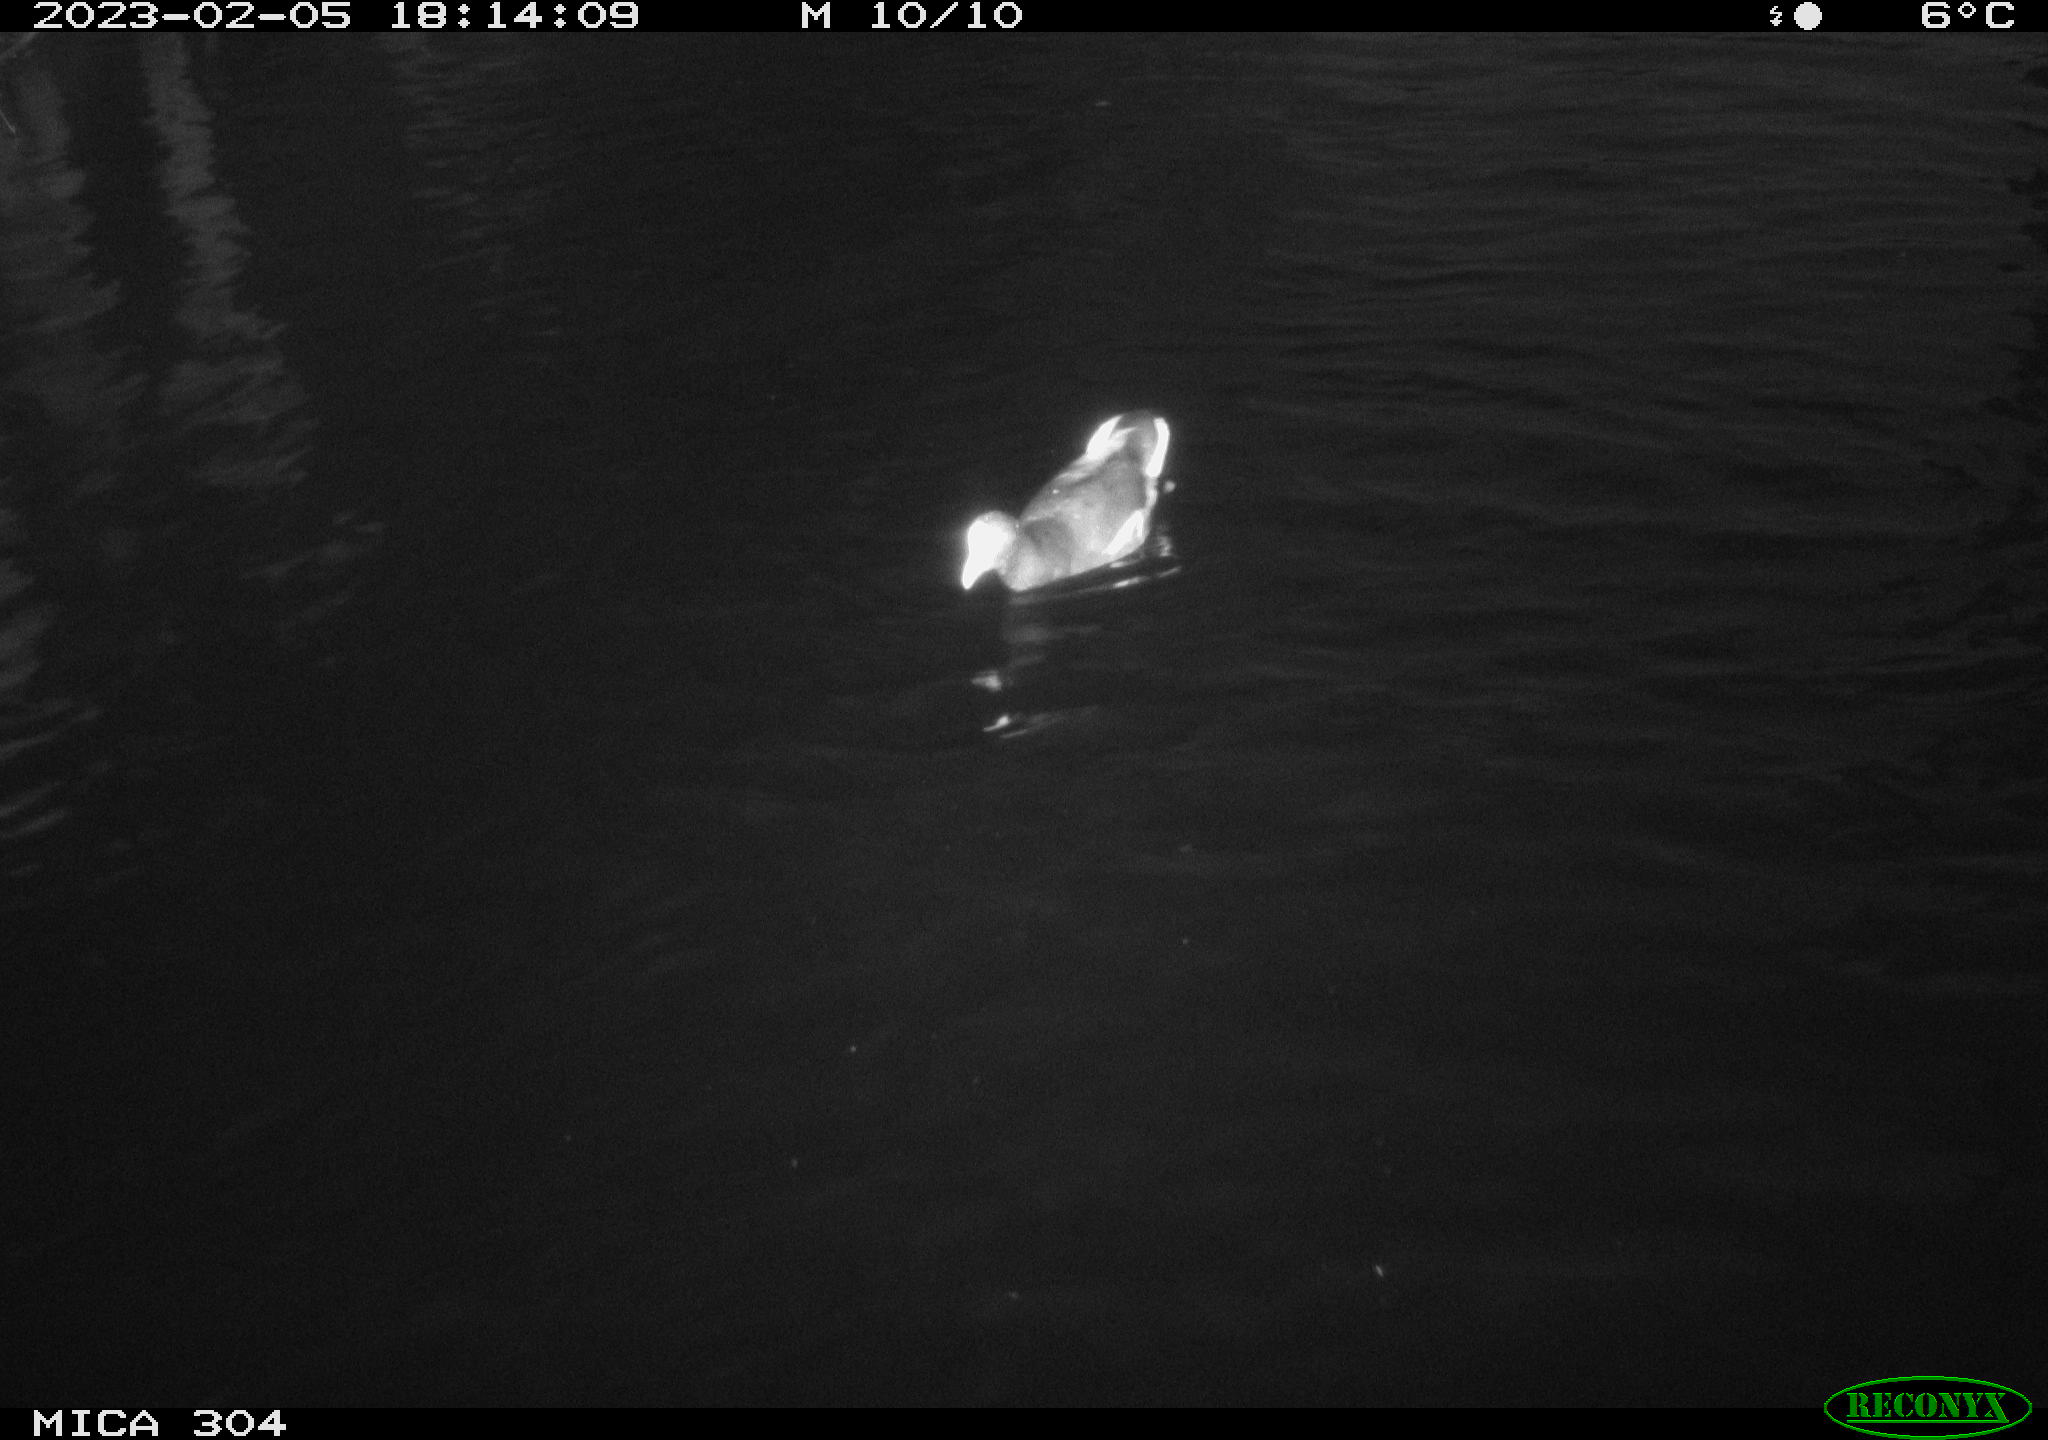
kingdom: Animalia
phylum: Chordata
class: Aves
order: Gruiformes
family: Rallidae
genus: Gallinula
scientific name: Gallinula chloropus
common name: Common moorhen
